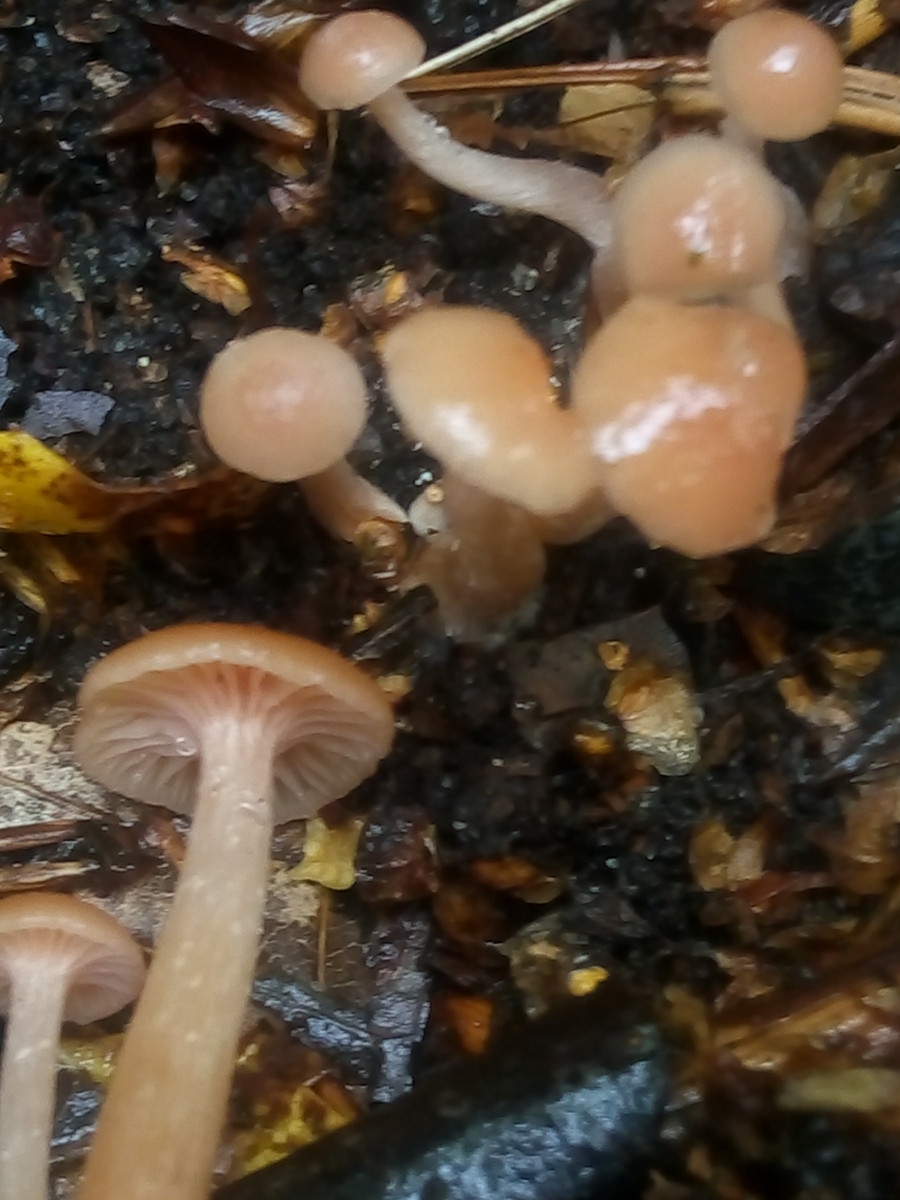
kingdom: Fungi
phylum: Basidiomycota
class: Agaricomycetes
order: Agaricales
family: Hydnangiaceae
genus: Laccaria
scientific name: Laccaria laccata
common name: rød ametysthat
